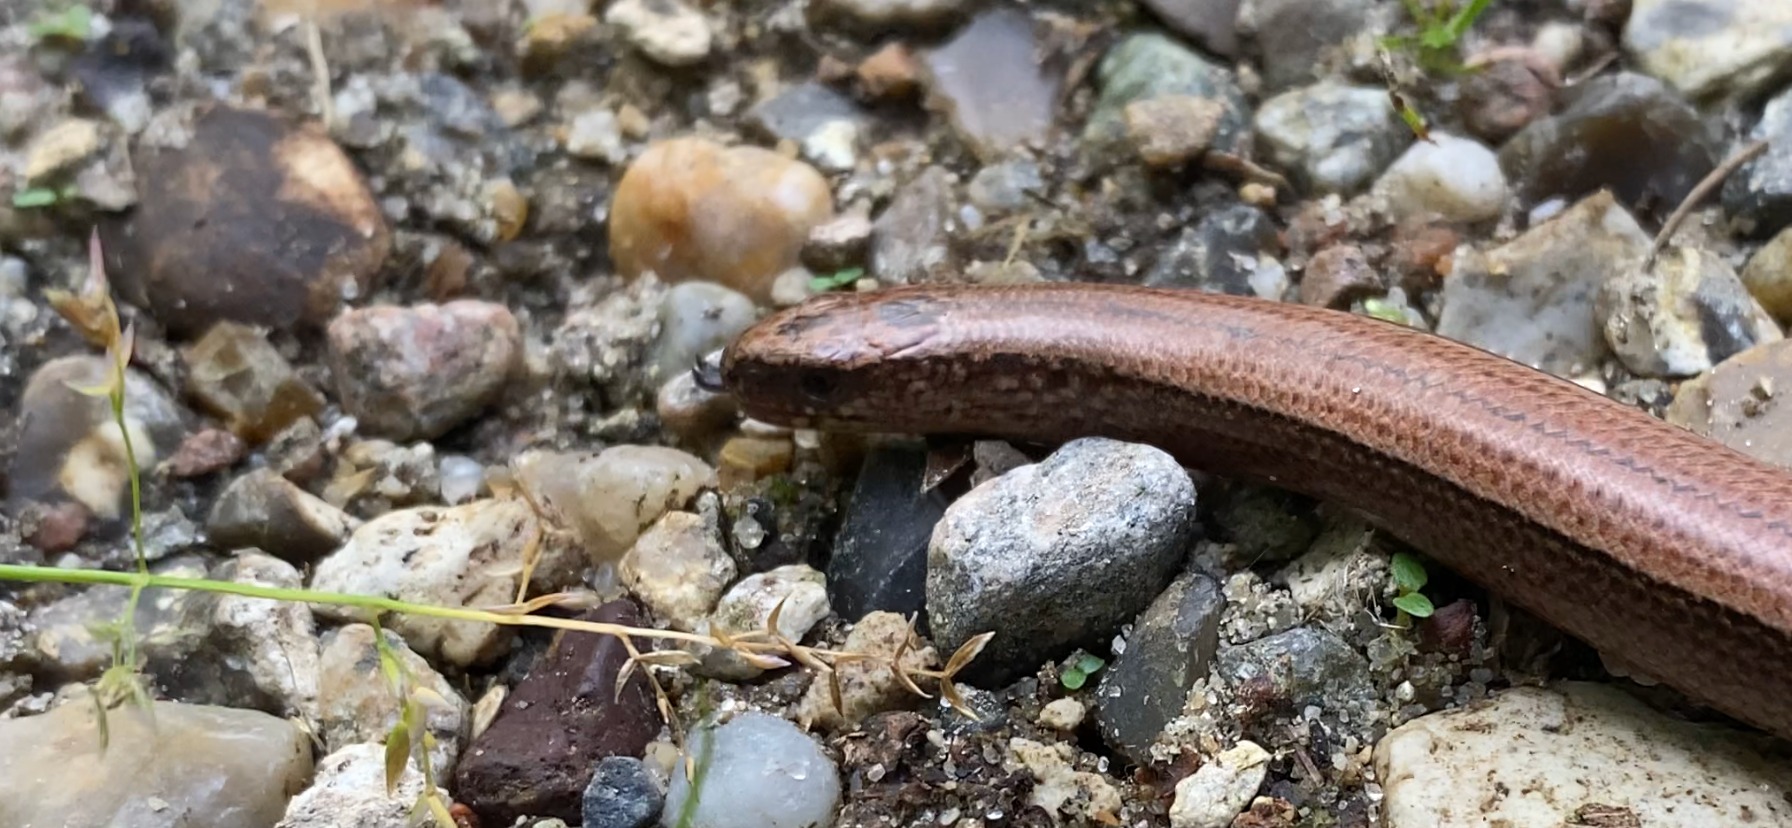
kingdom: Animalia
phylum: Chordata
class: Squamata
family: Anguidae
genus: Anguis
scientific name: Anguis fragilis
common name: Stålorm
